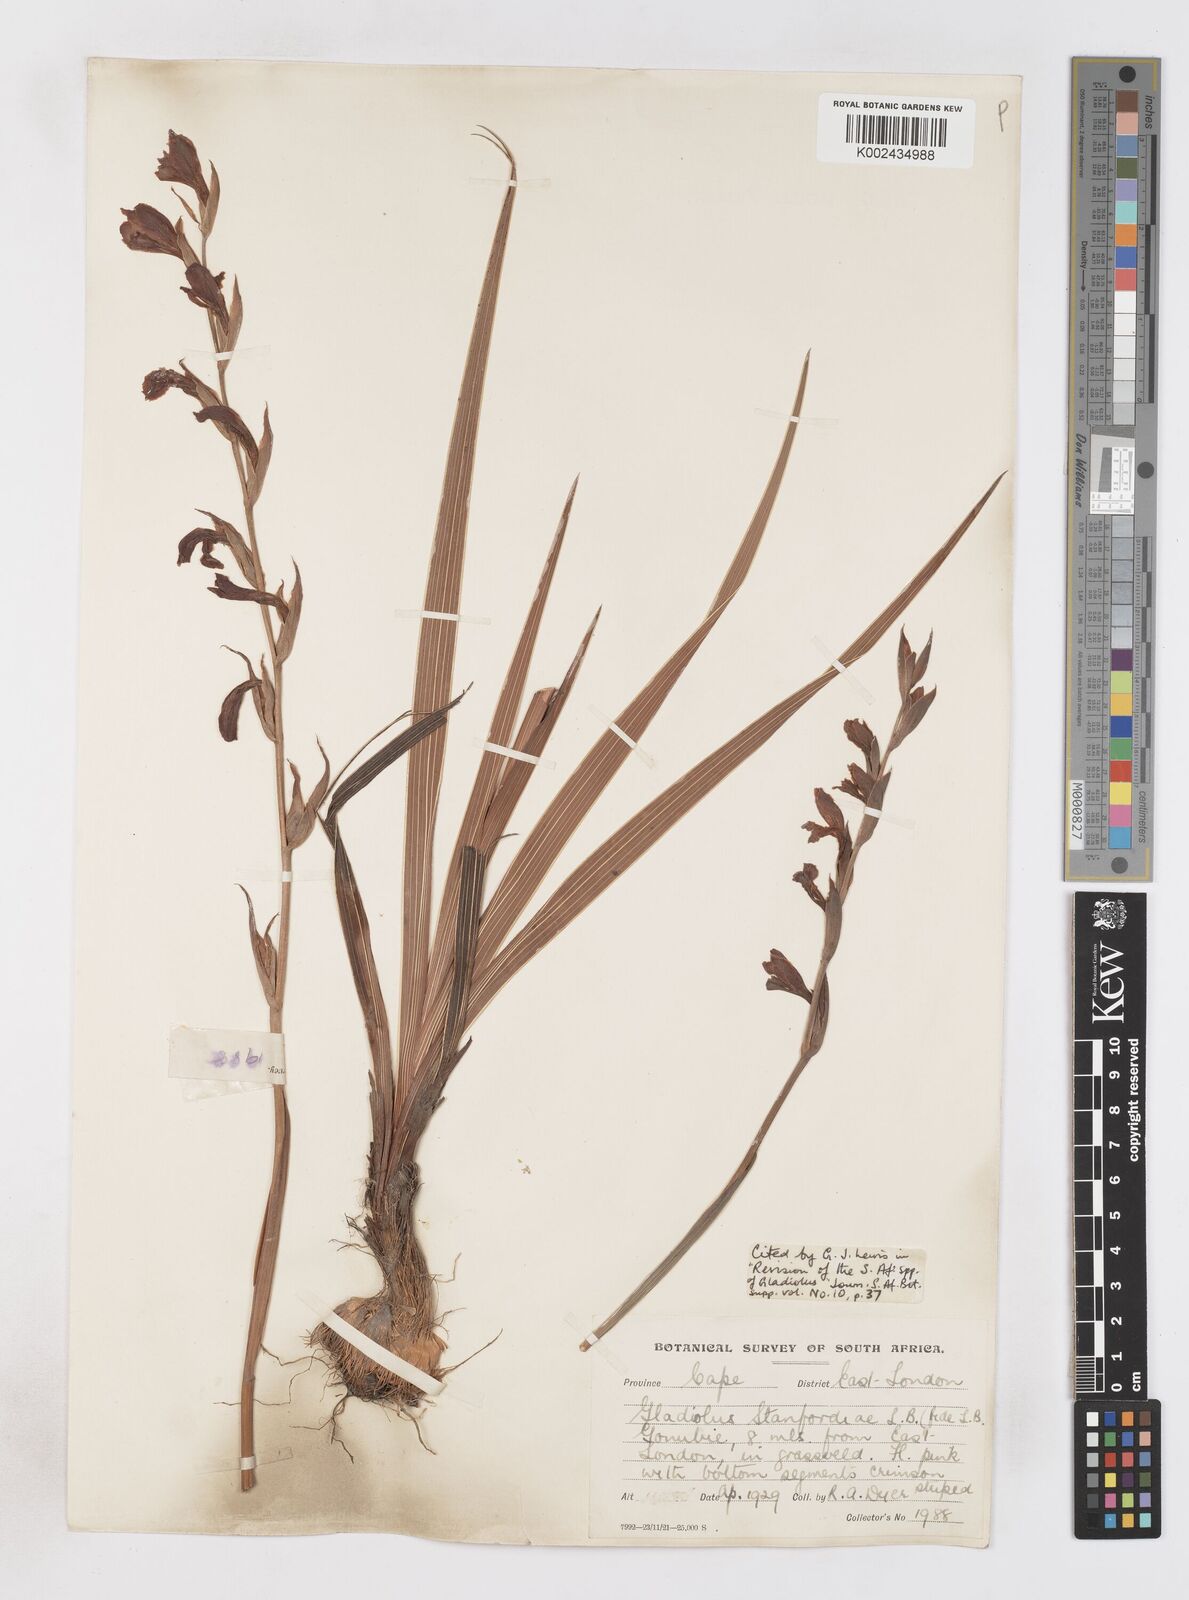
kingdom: Plantae
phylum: Tracheophyta
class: Liliopsida
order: Asparagales
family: Iridaceae
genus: Gladiolus
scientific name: Gladiolus ochroleucus
